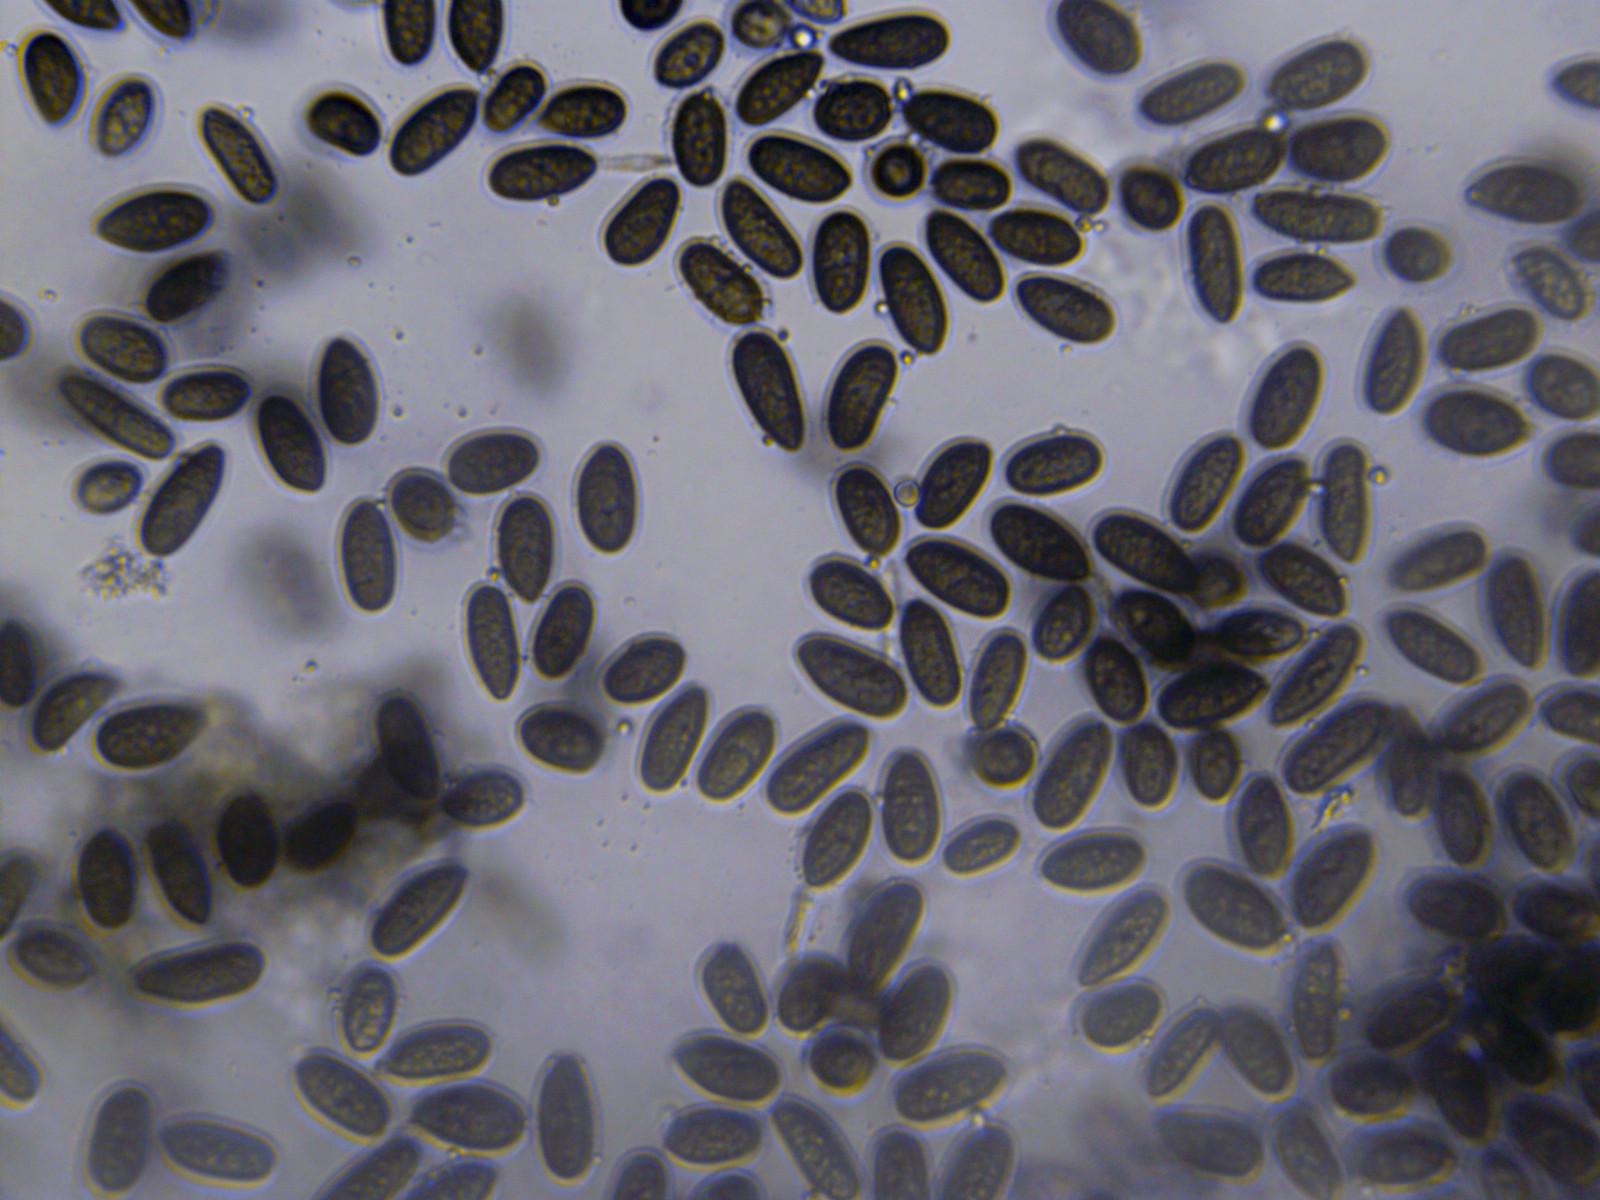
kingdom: Fungi
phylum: Ascomycota
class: Sordariomycetes
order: Diaporthales
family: Juglanconidaceae
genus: Juglanconis
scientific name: Juglanconis pterocaryae
